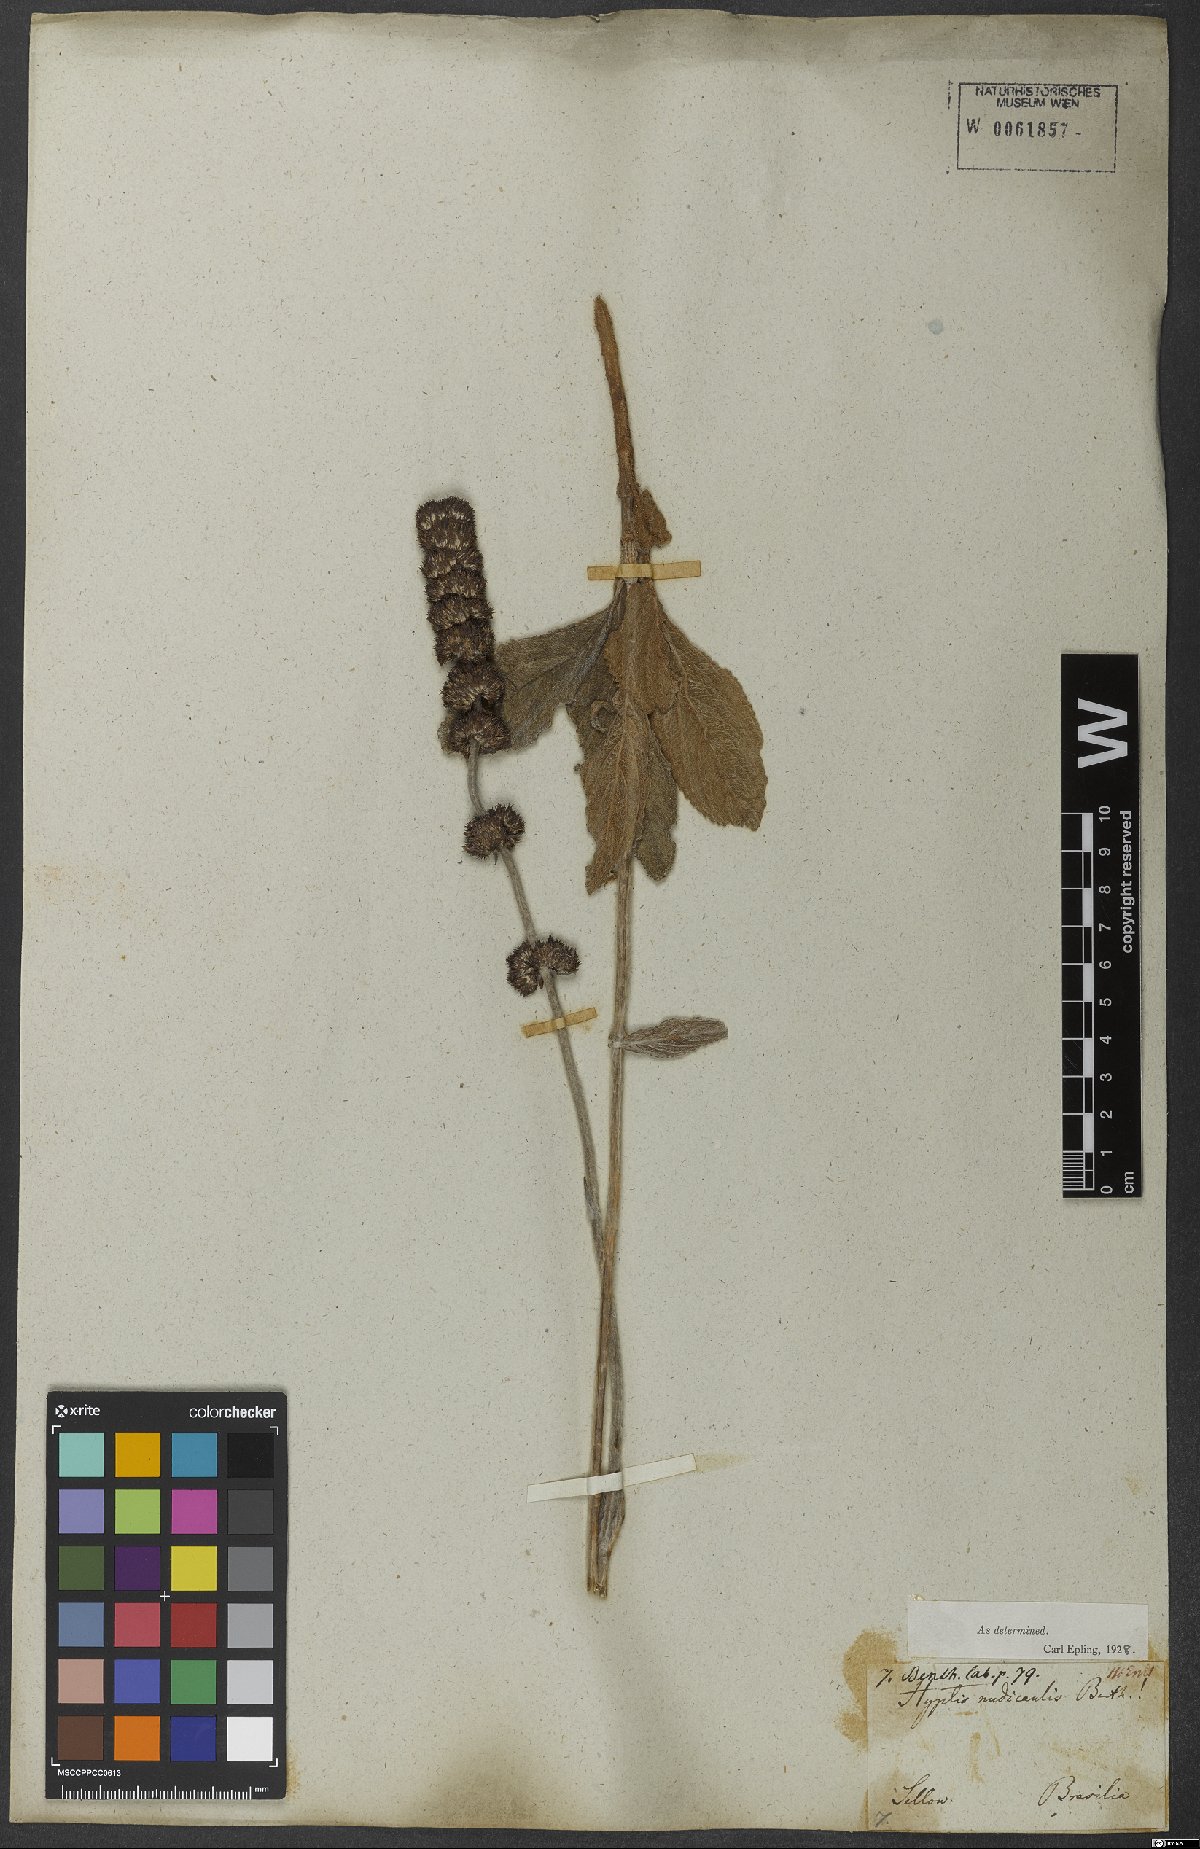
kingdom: Plantae
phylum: Tracheophyta
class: Magnoliopsida
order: Lamiales
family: Lamiaceae
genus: Hyptis
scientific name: Hyptis nudicaulis
